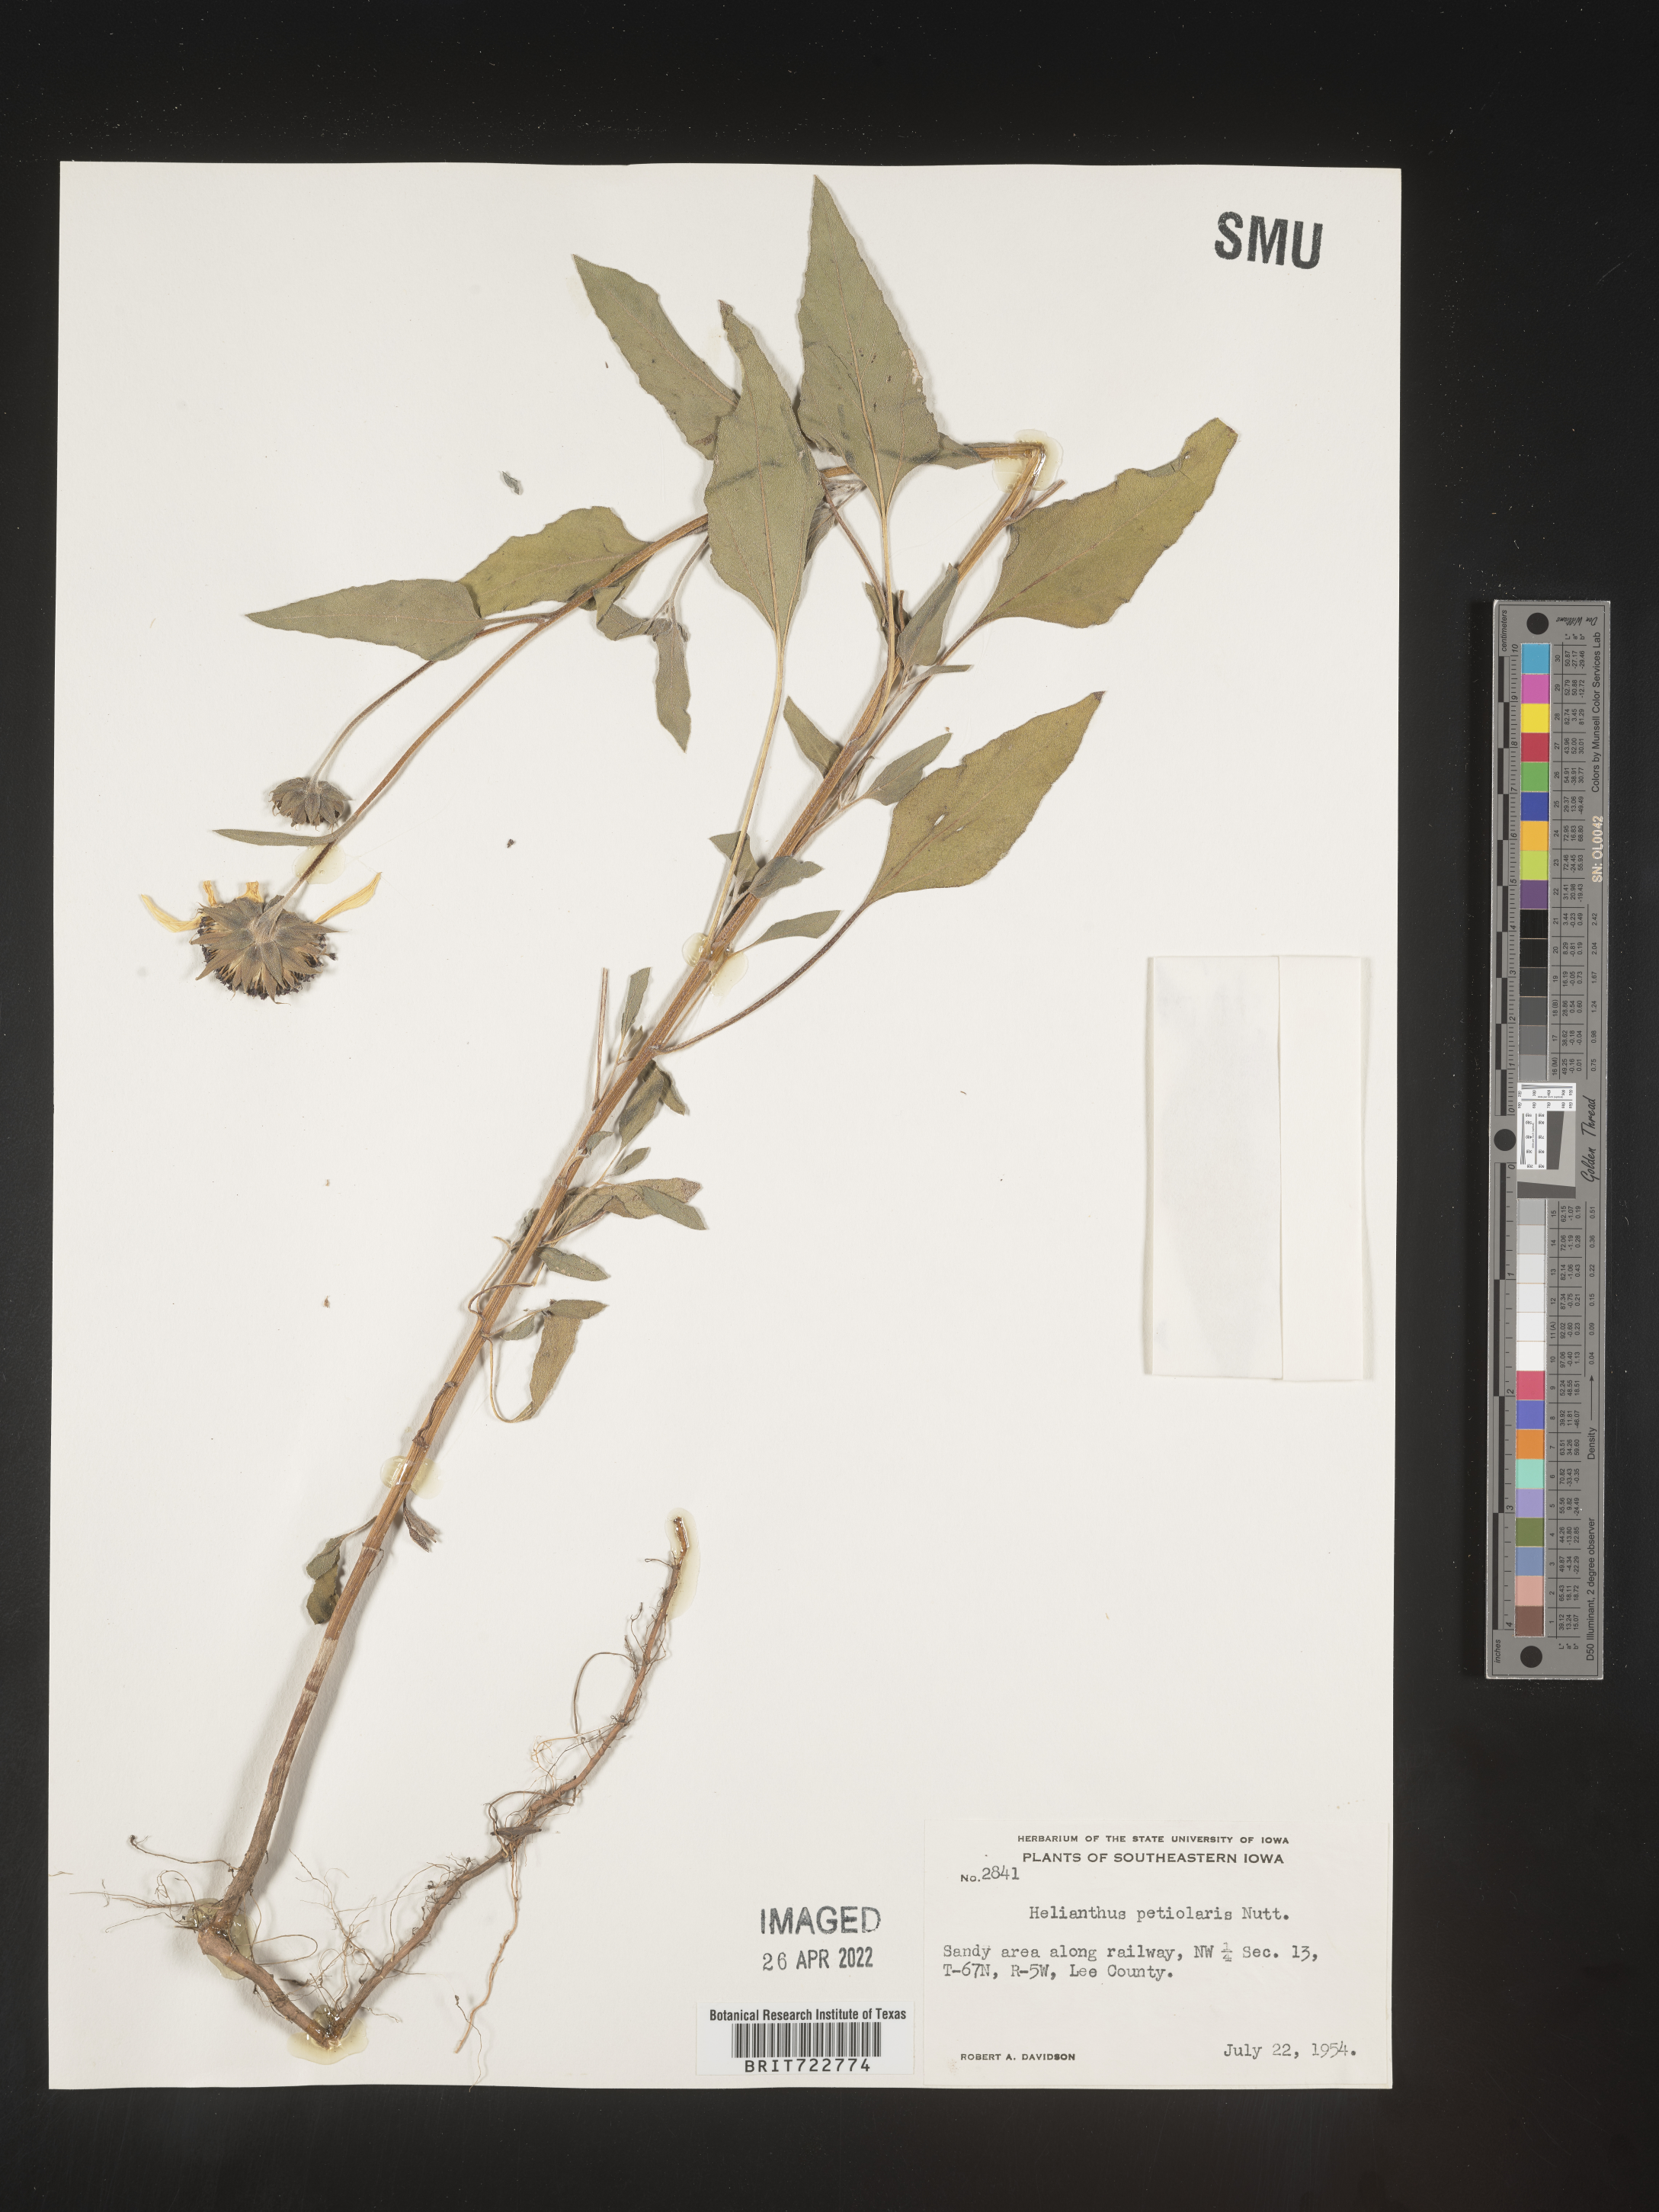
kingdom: Plantae
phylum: Tracheophyta
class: Magnoliopsida
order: Asterales
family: Asteraceae
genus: Helianthus
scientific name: Helianthus petiolaris
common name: Lesser sunflower
